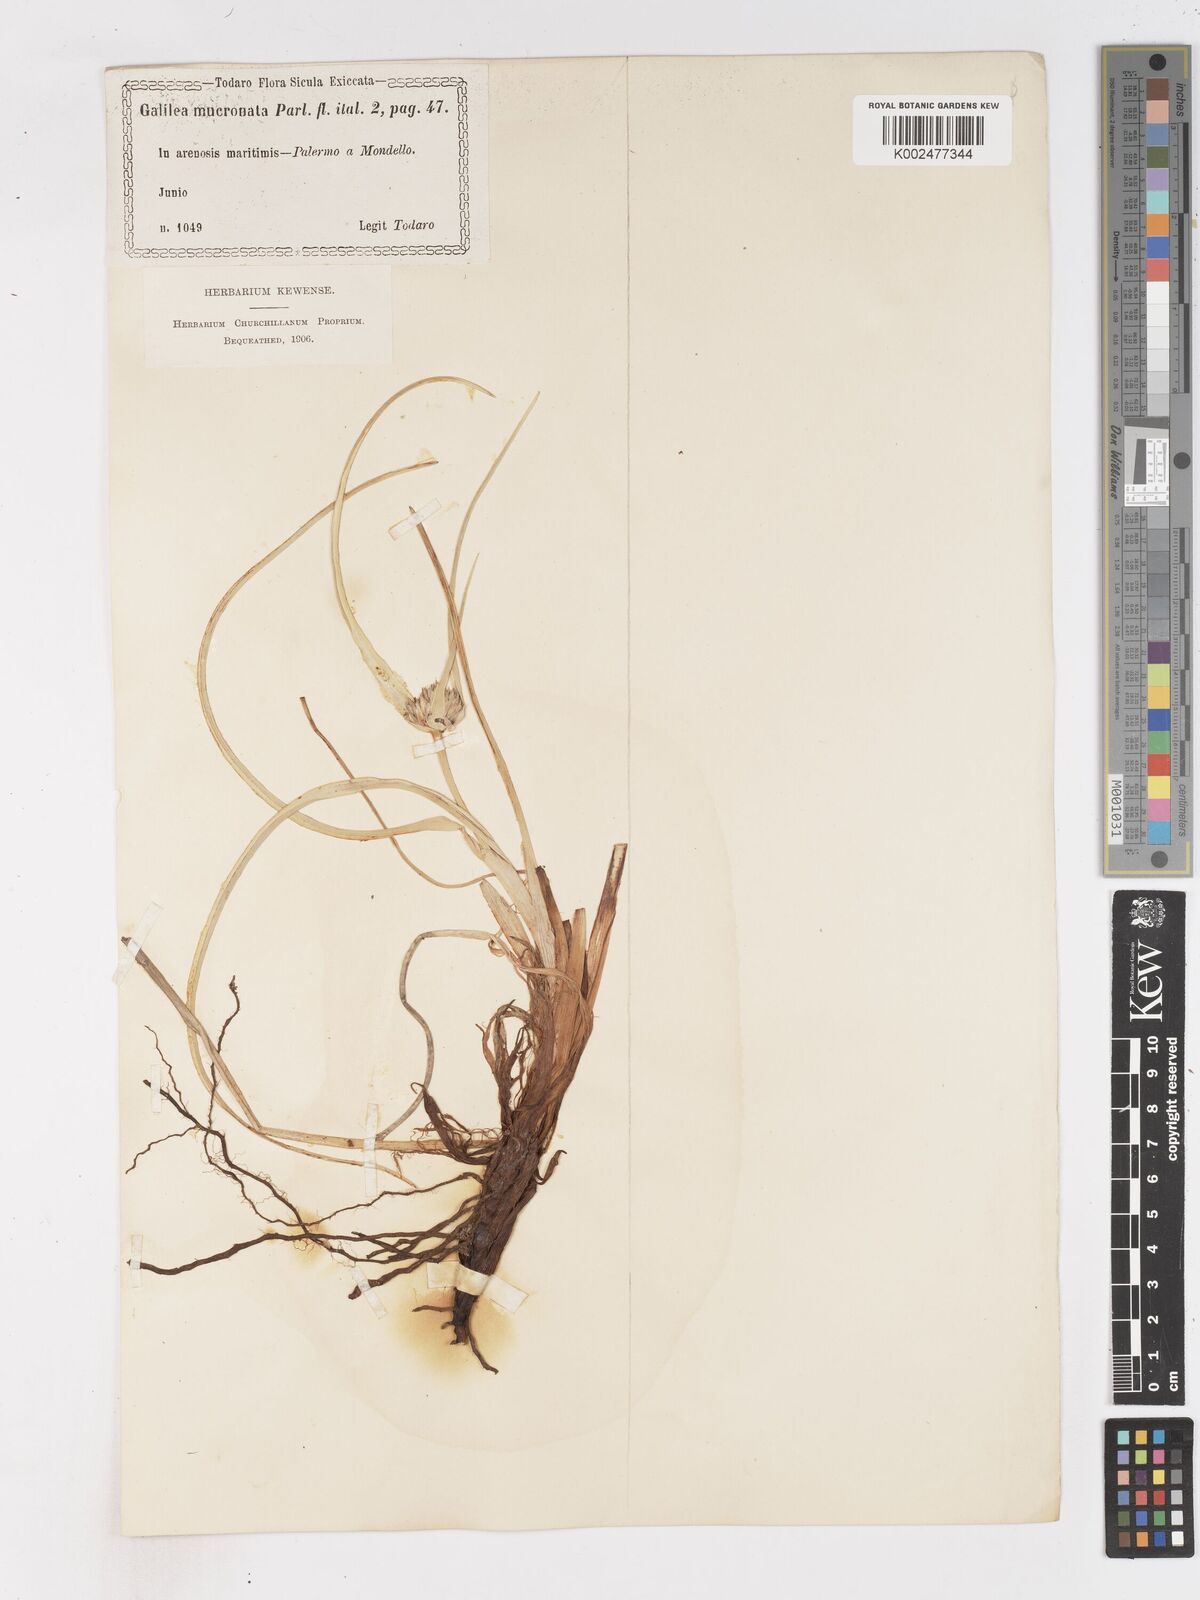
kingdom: Plantae
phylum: Tracheophyta
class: Liliopsida
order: Poales
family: Cyperaceae
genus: Cyperus
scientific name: Cyperus capitatus
